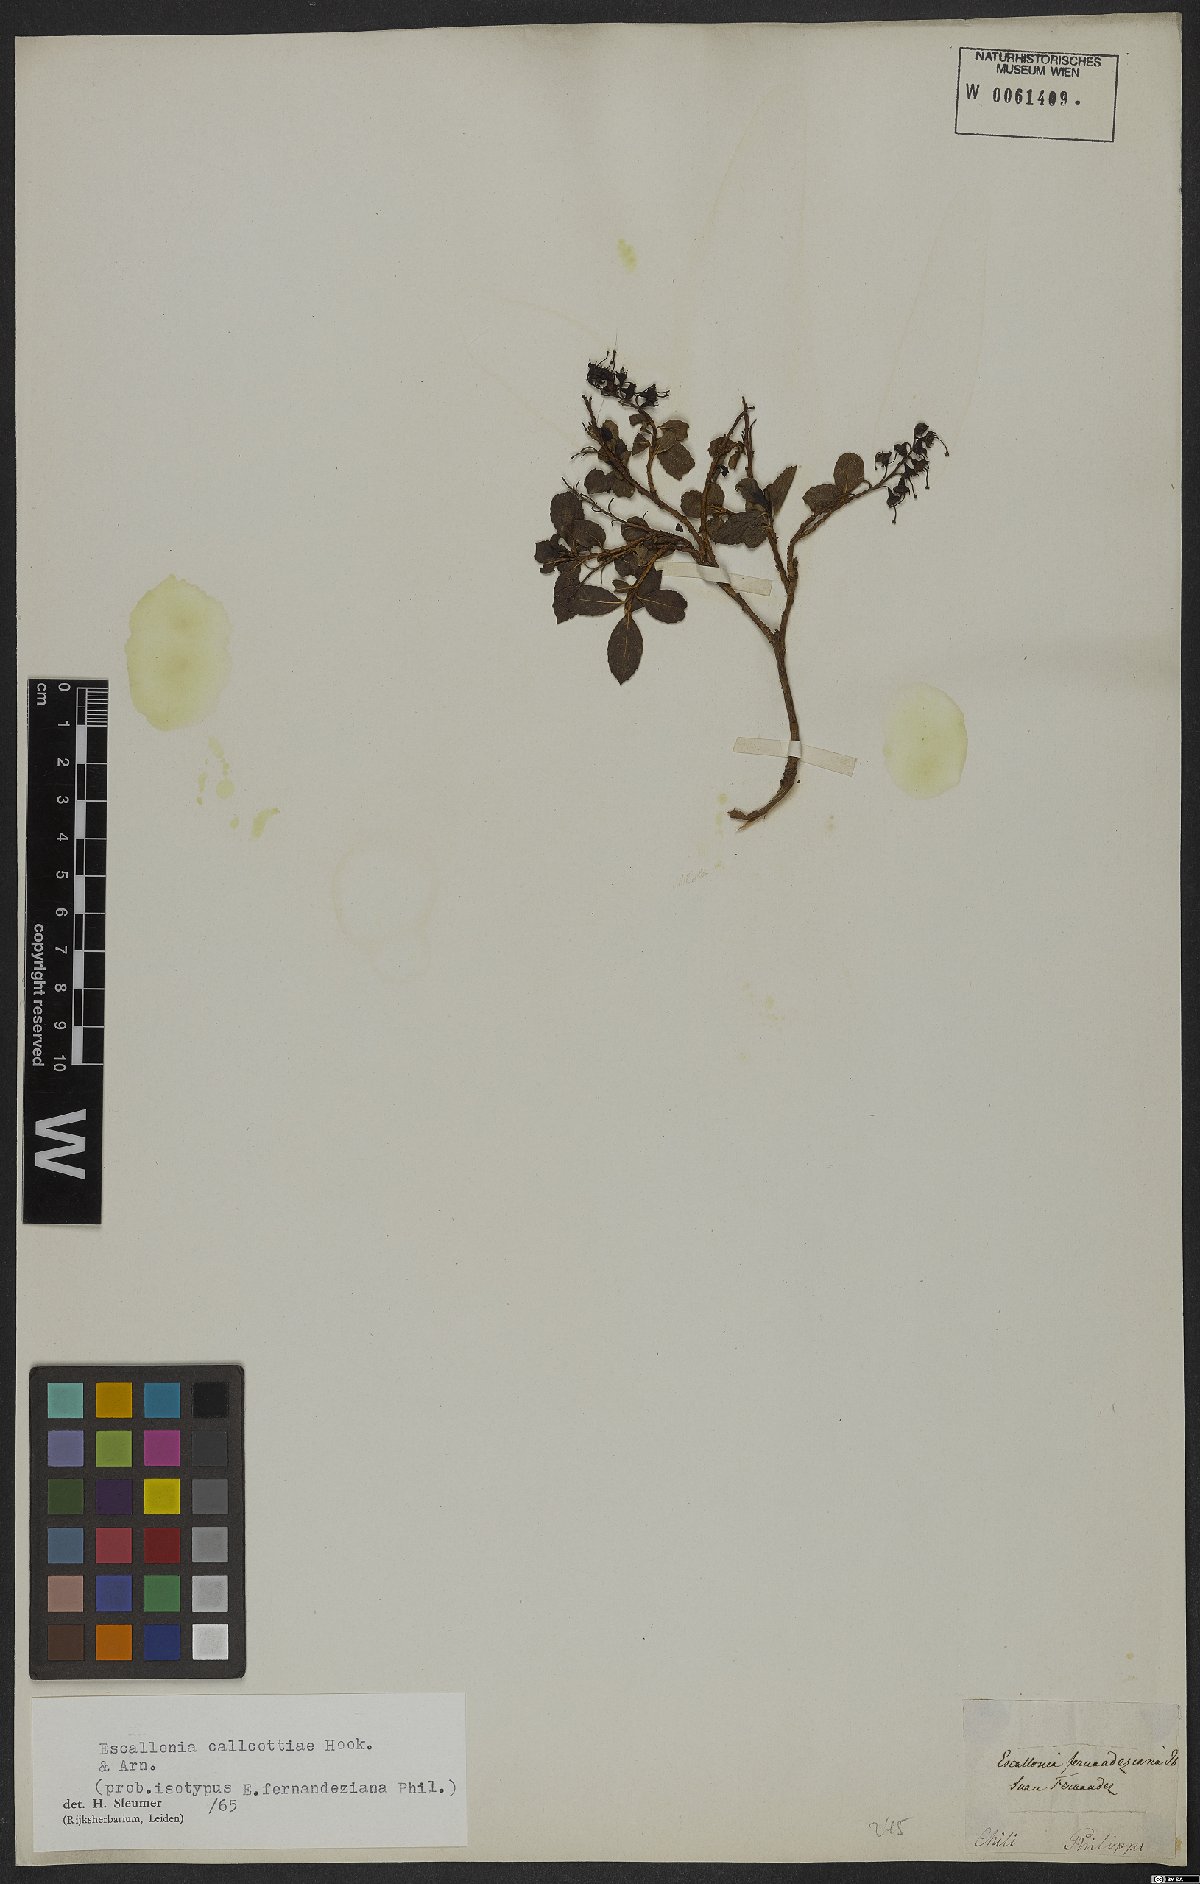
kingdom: Plantae
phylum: Tracheophyta
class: Magnoliopsida
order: Escalloniales
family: Escalloniaceae
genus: Escallonia
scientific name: Escallonia callcottiae
